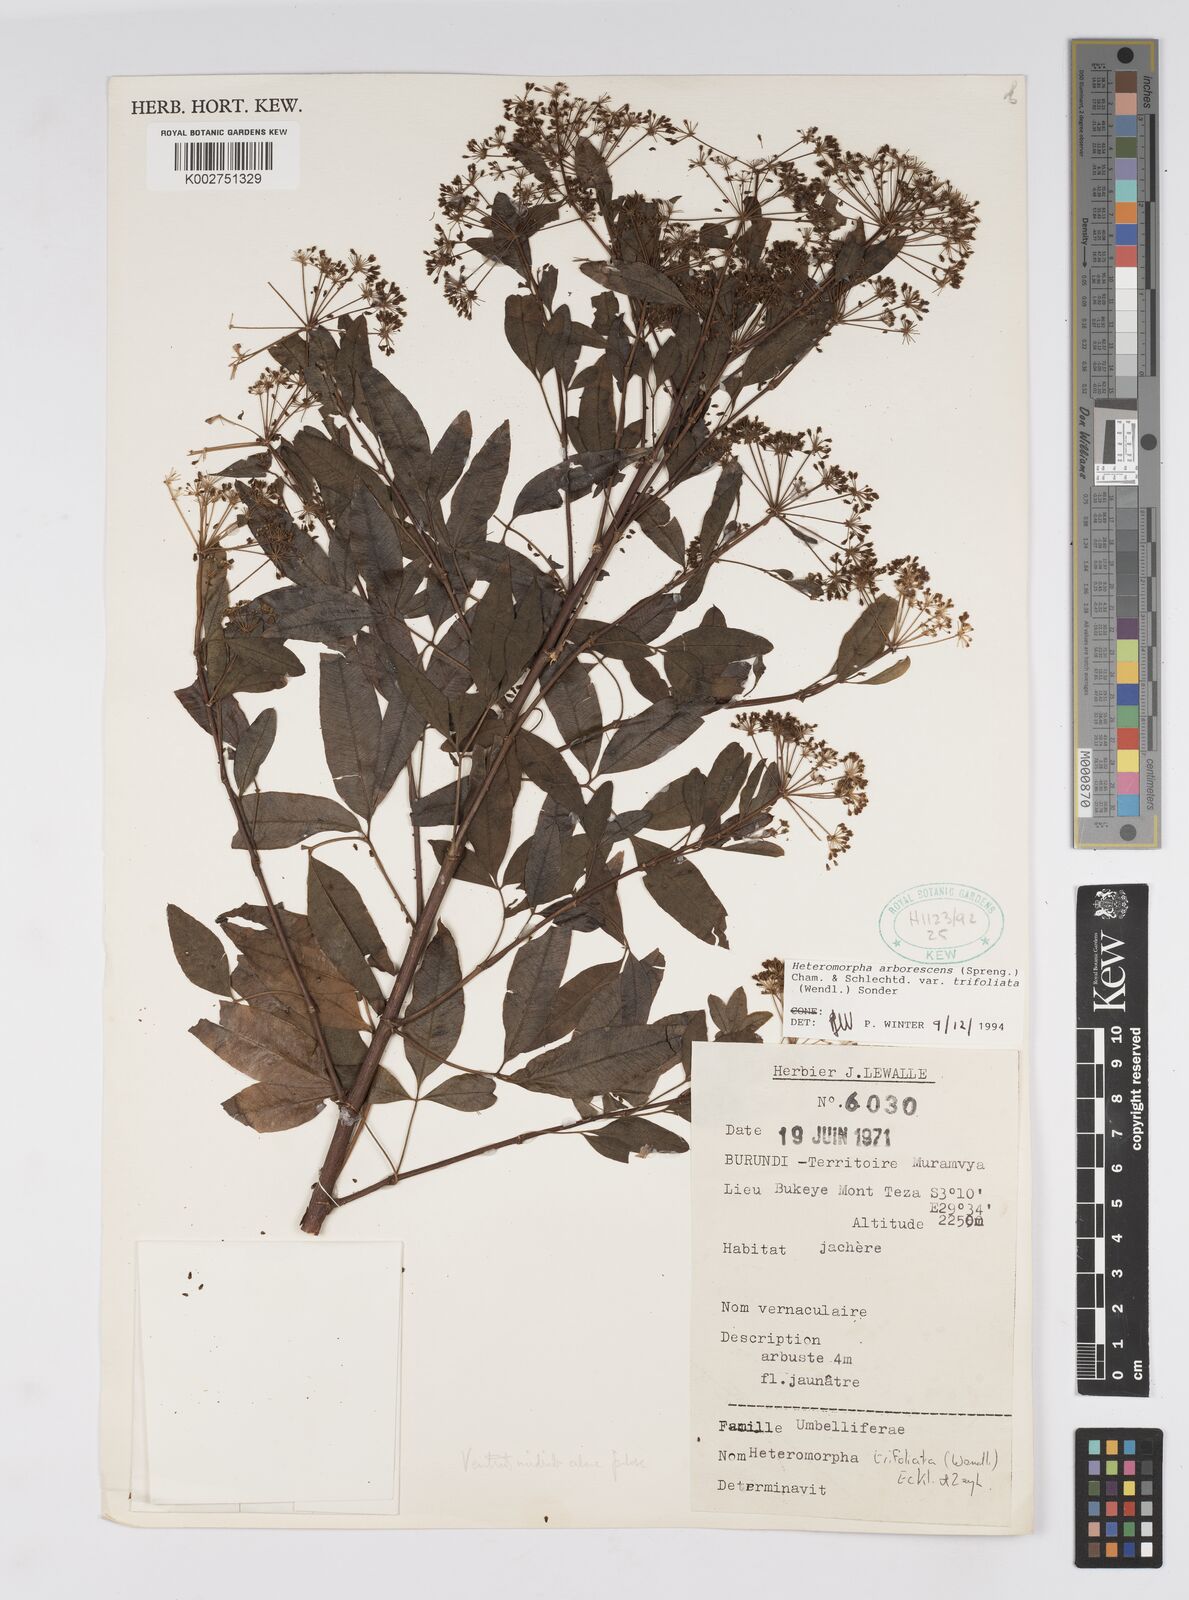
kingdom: Plantae
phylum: Tracheophyta
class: Magnoliopsida
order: Apiales
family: Apiaceae
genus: Heteromorpha
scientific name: Heteromorpha arborescens
